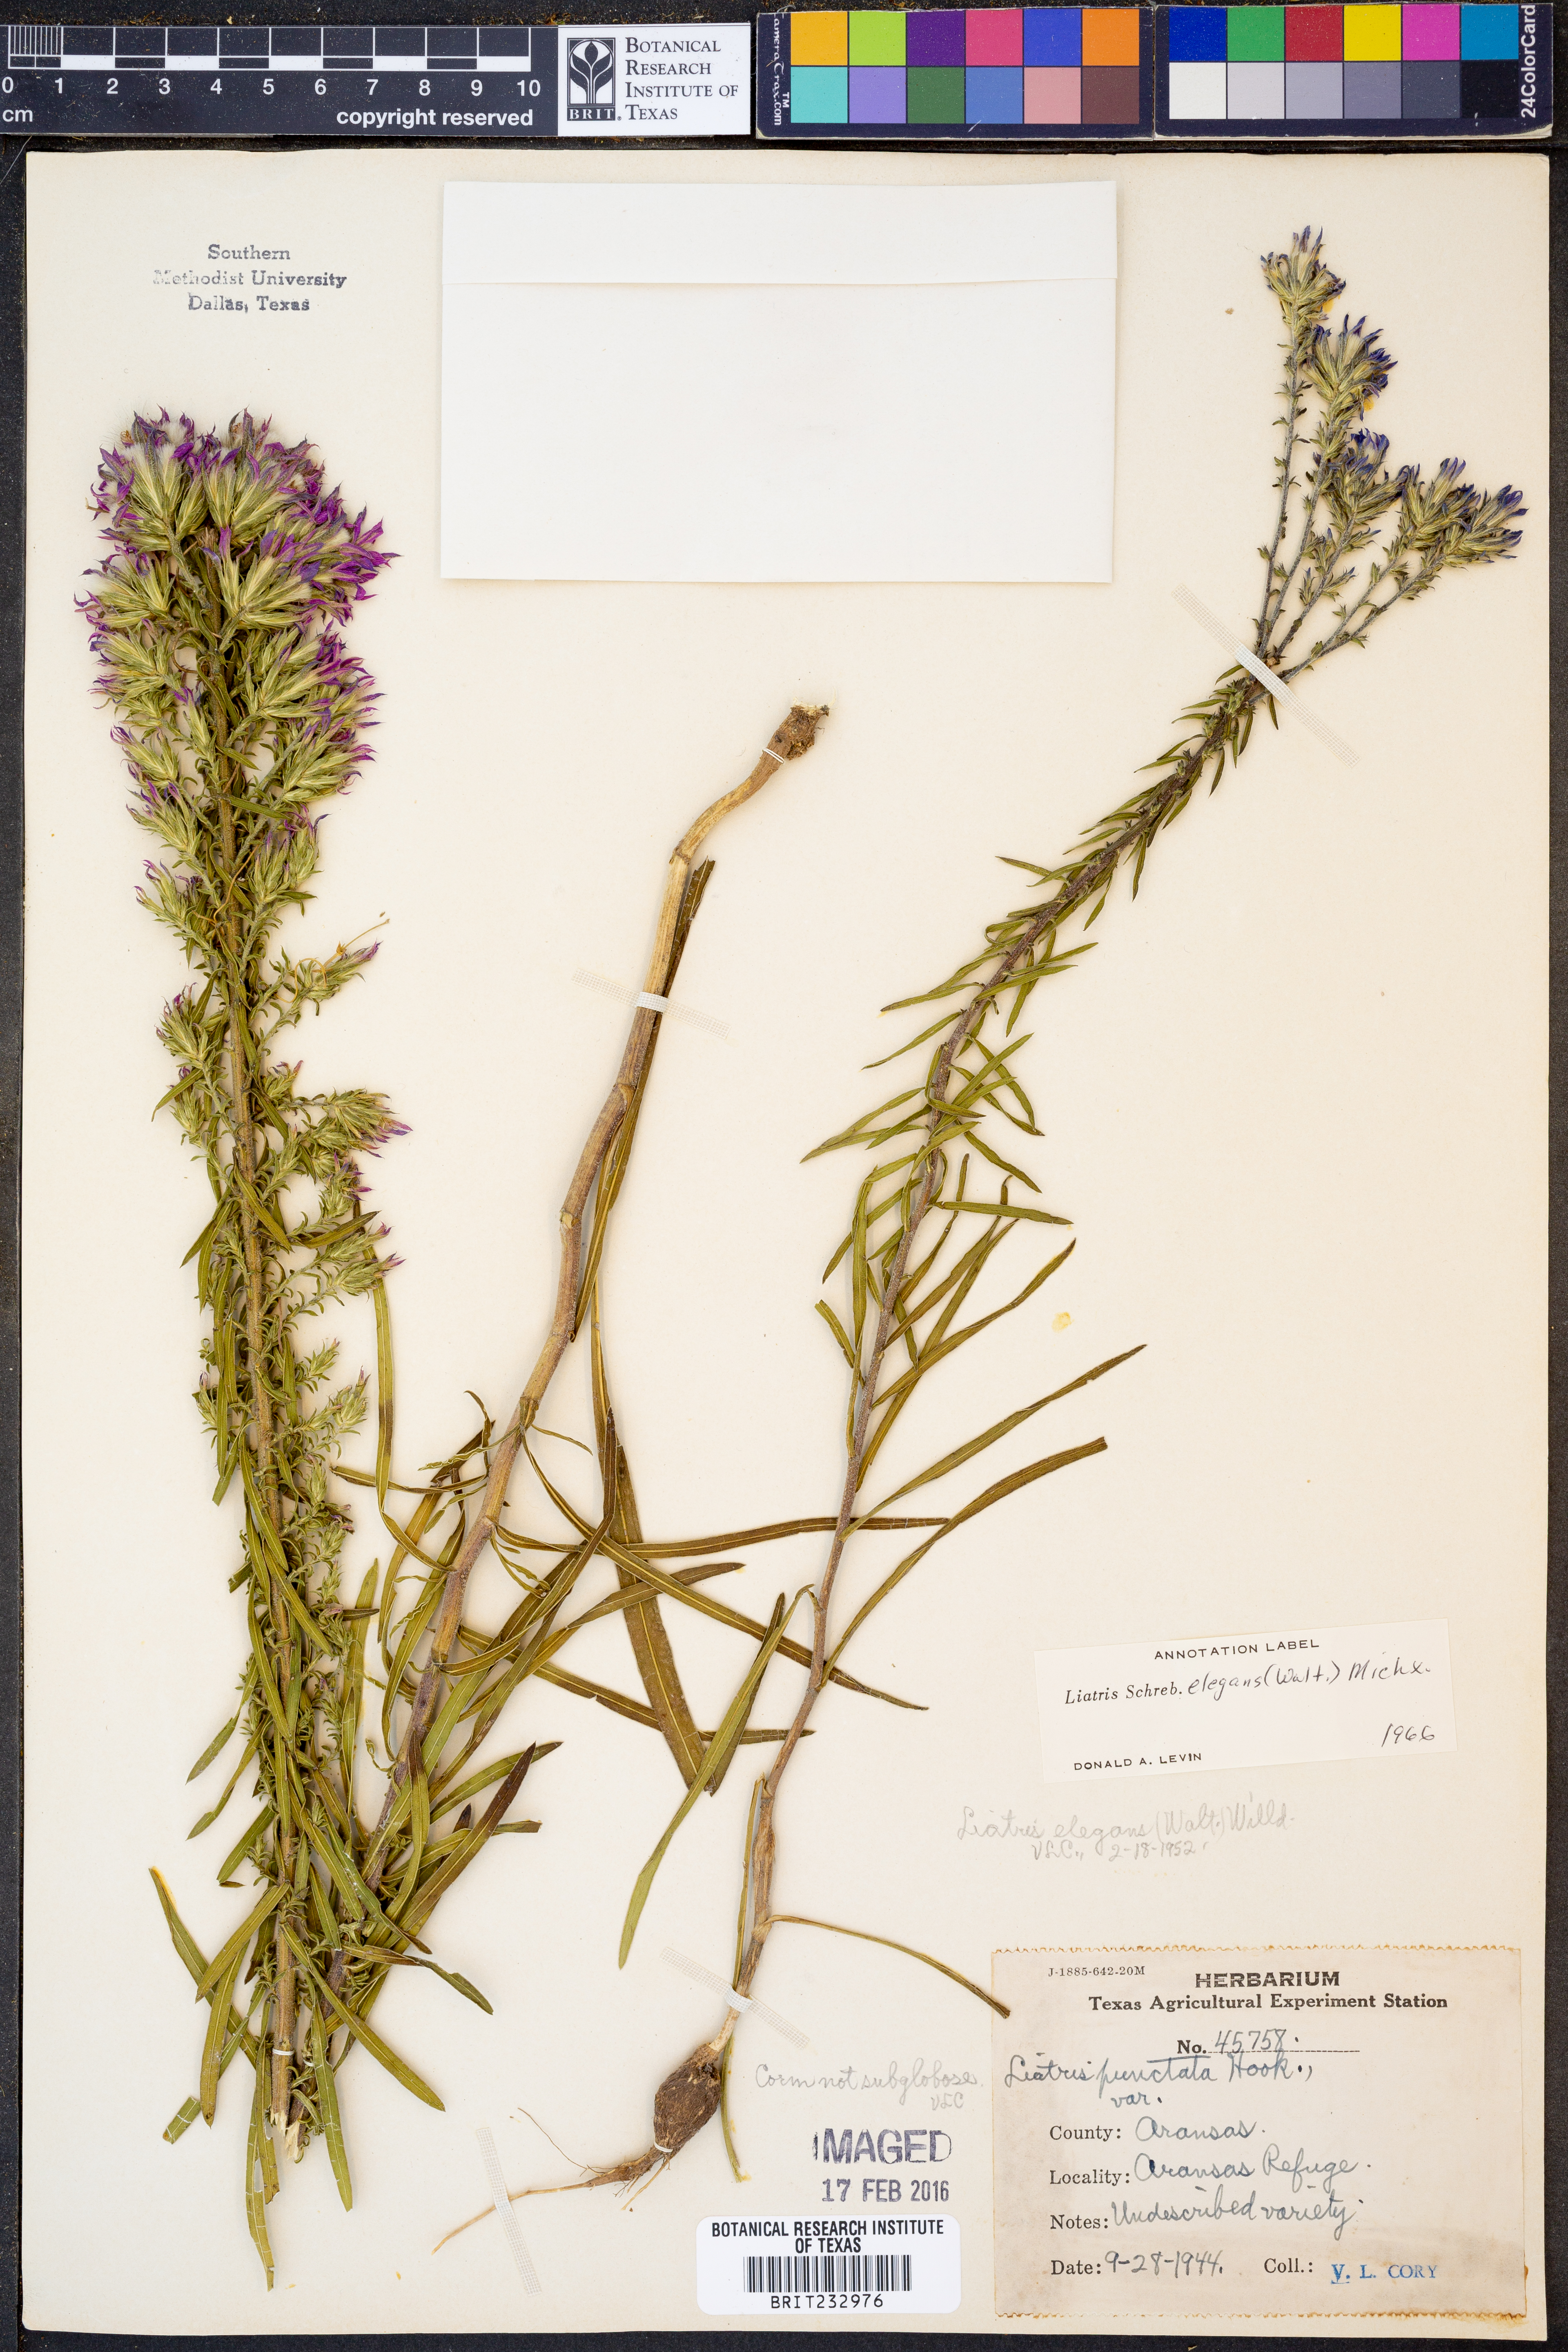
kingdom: Plantae
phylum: Tracheophyta
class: Magnoliopsida
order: Asterales
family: Asteraceae
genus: Liatris
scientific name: Liatris elegans
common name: Pinkscale gayfeather
